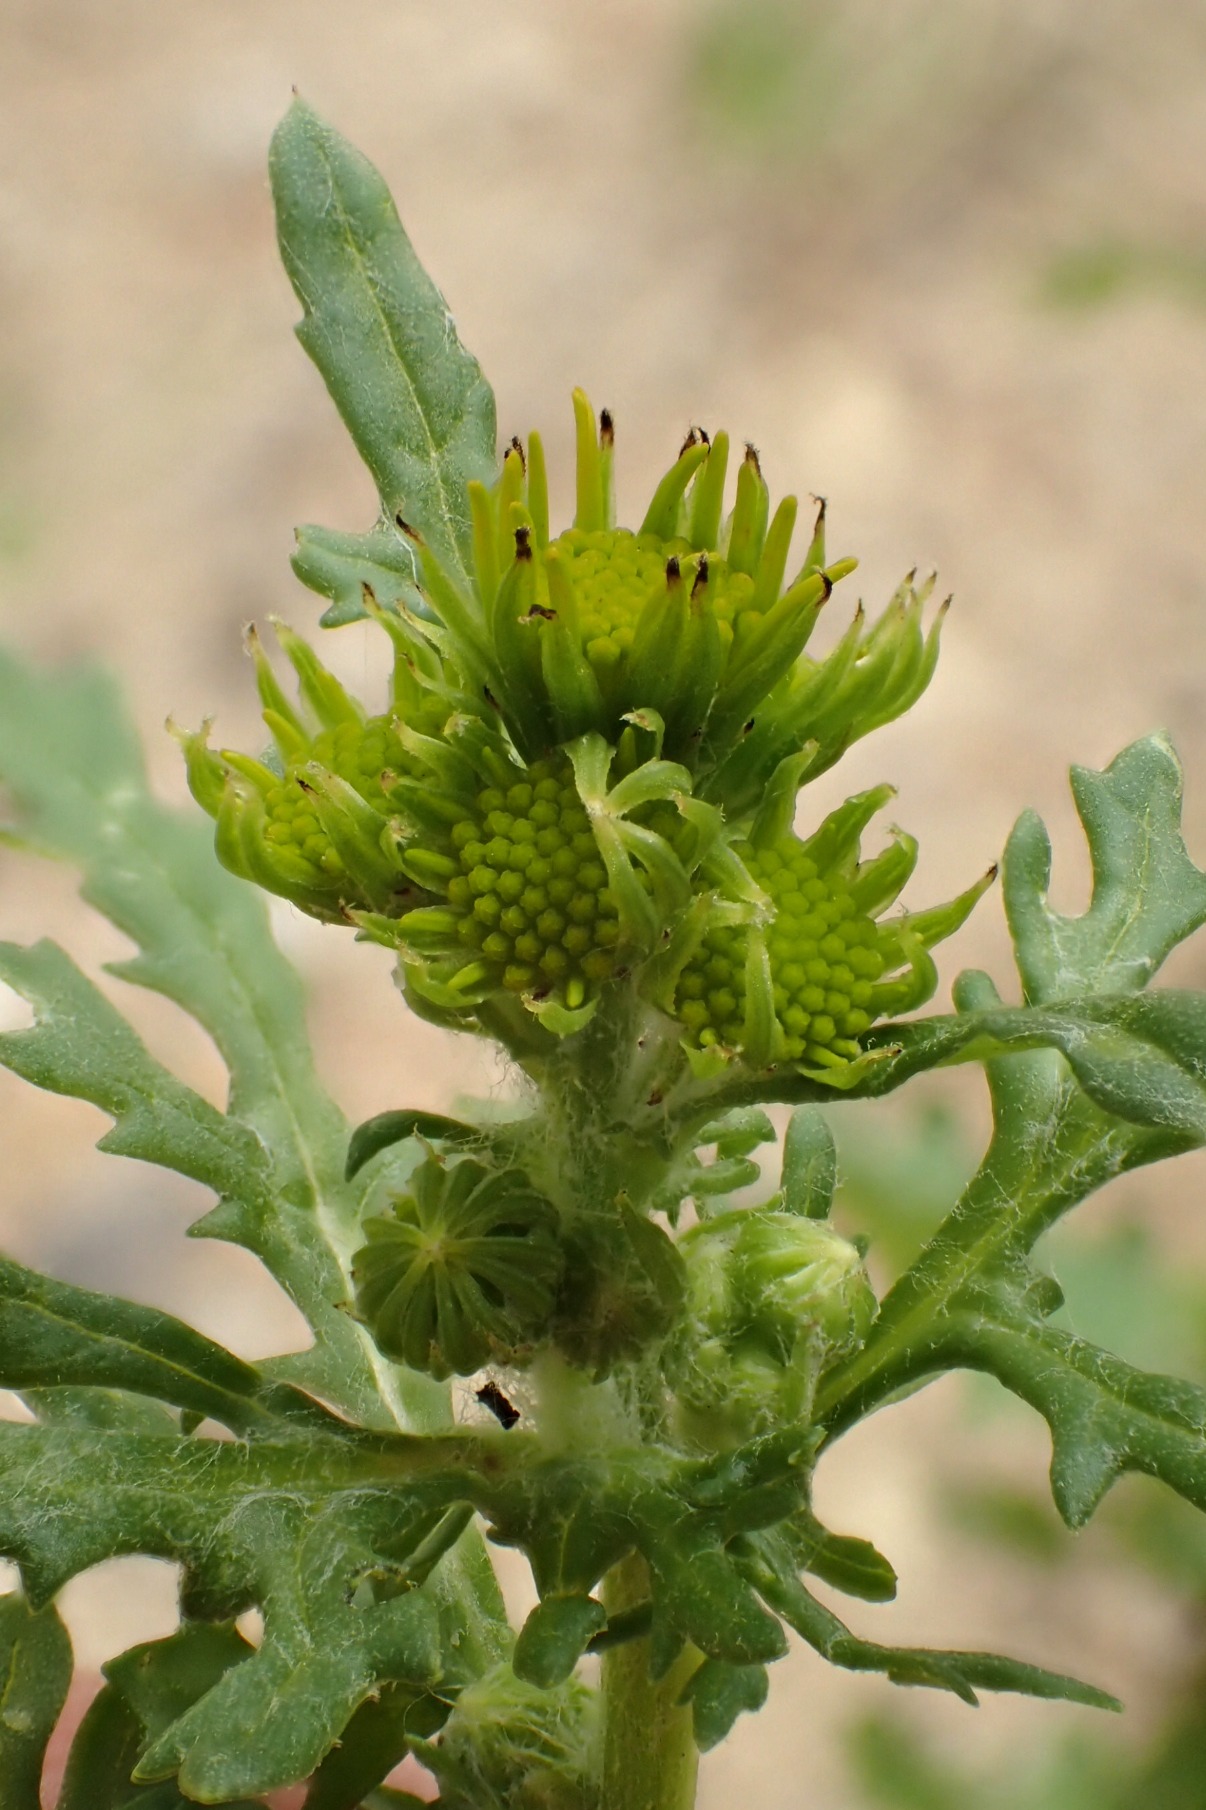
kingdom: Plantae
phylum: Tracheophyta
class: Magnoliopsida
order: Asterales
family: Asteraceae
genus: Senecio
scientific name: Senecio sylvaticus
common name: Skov-brandbæger
